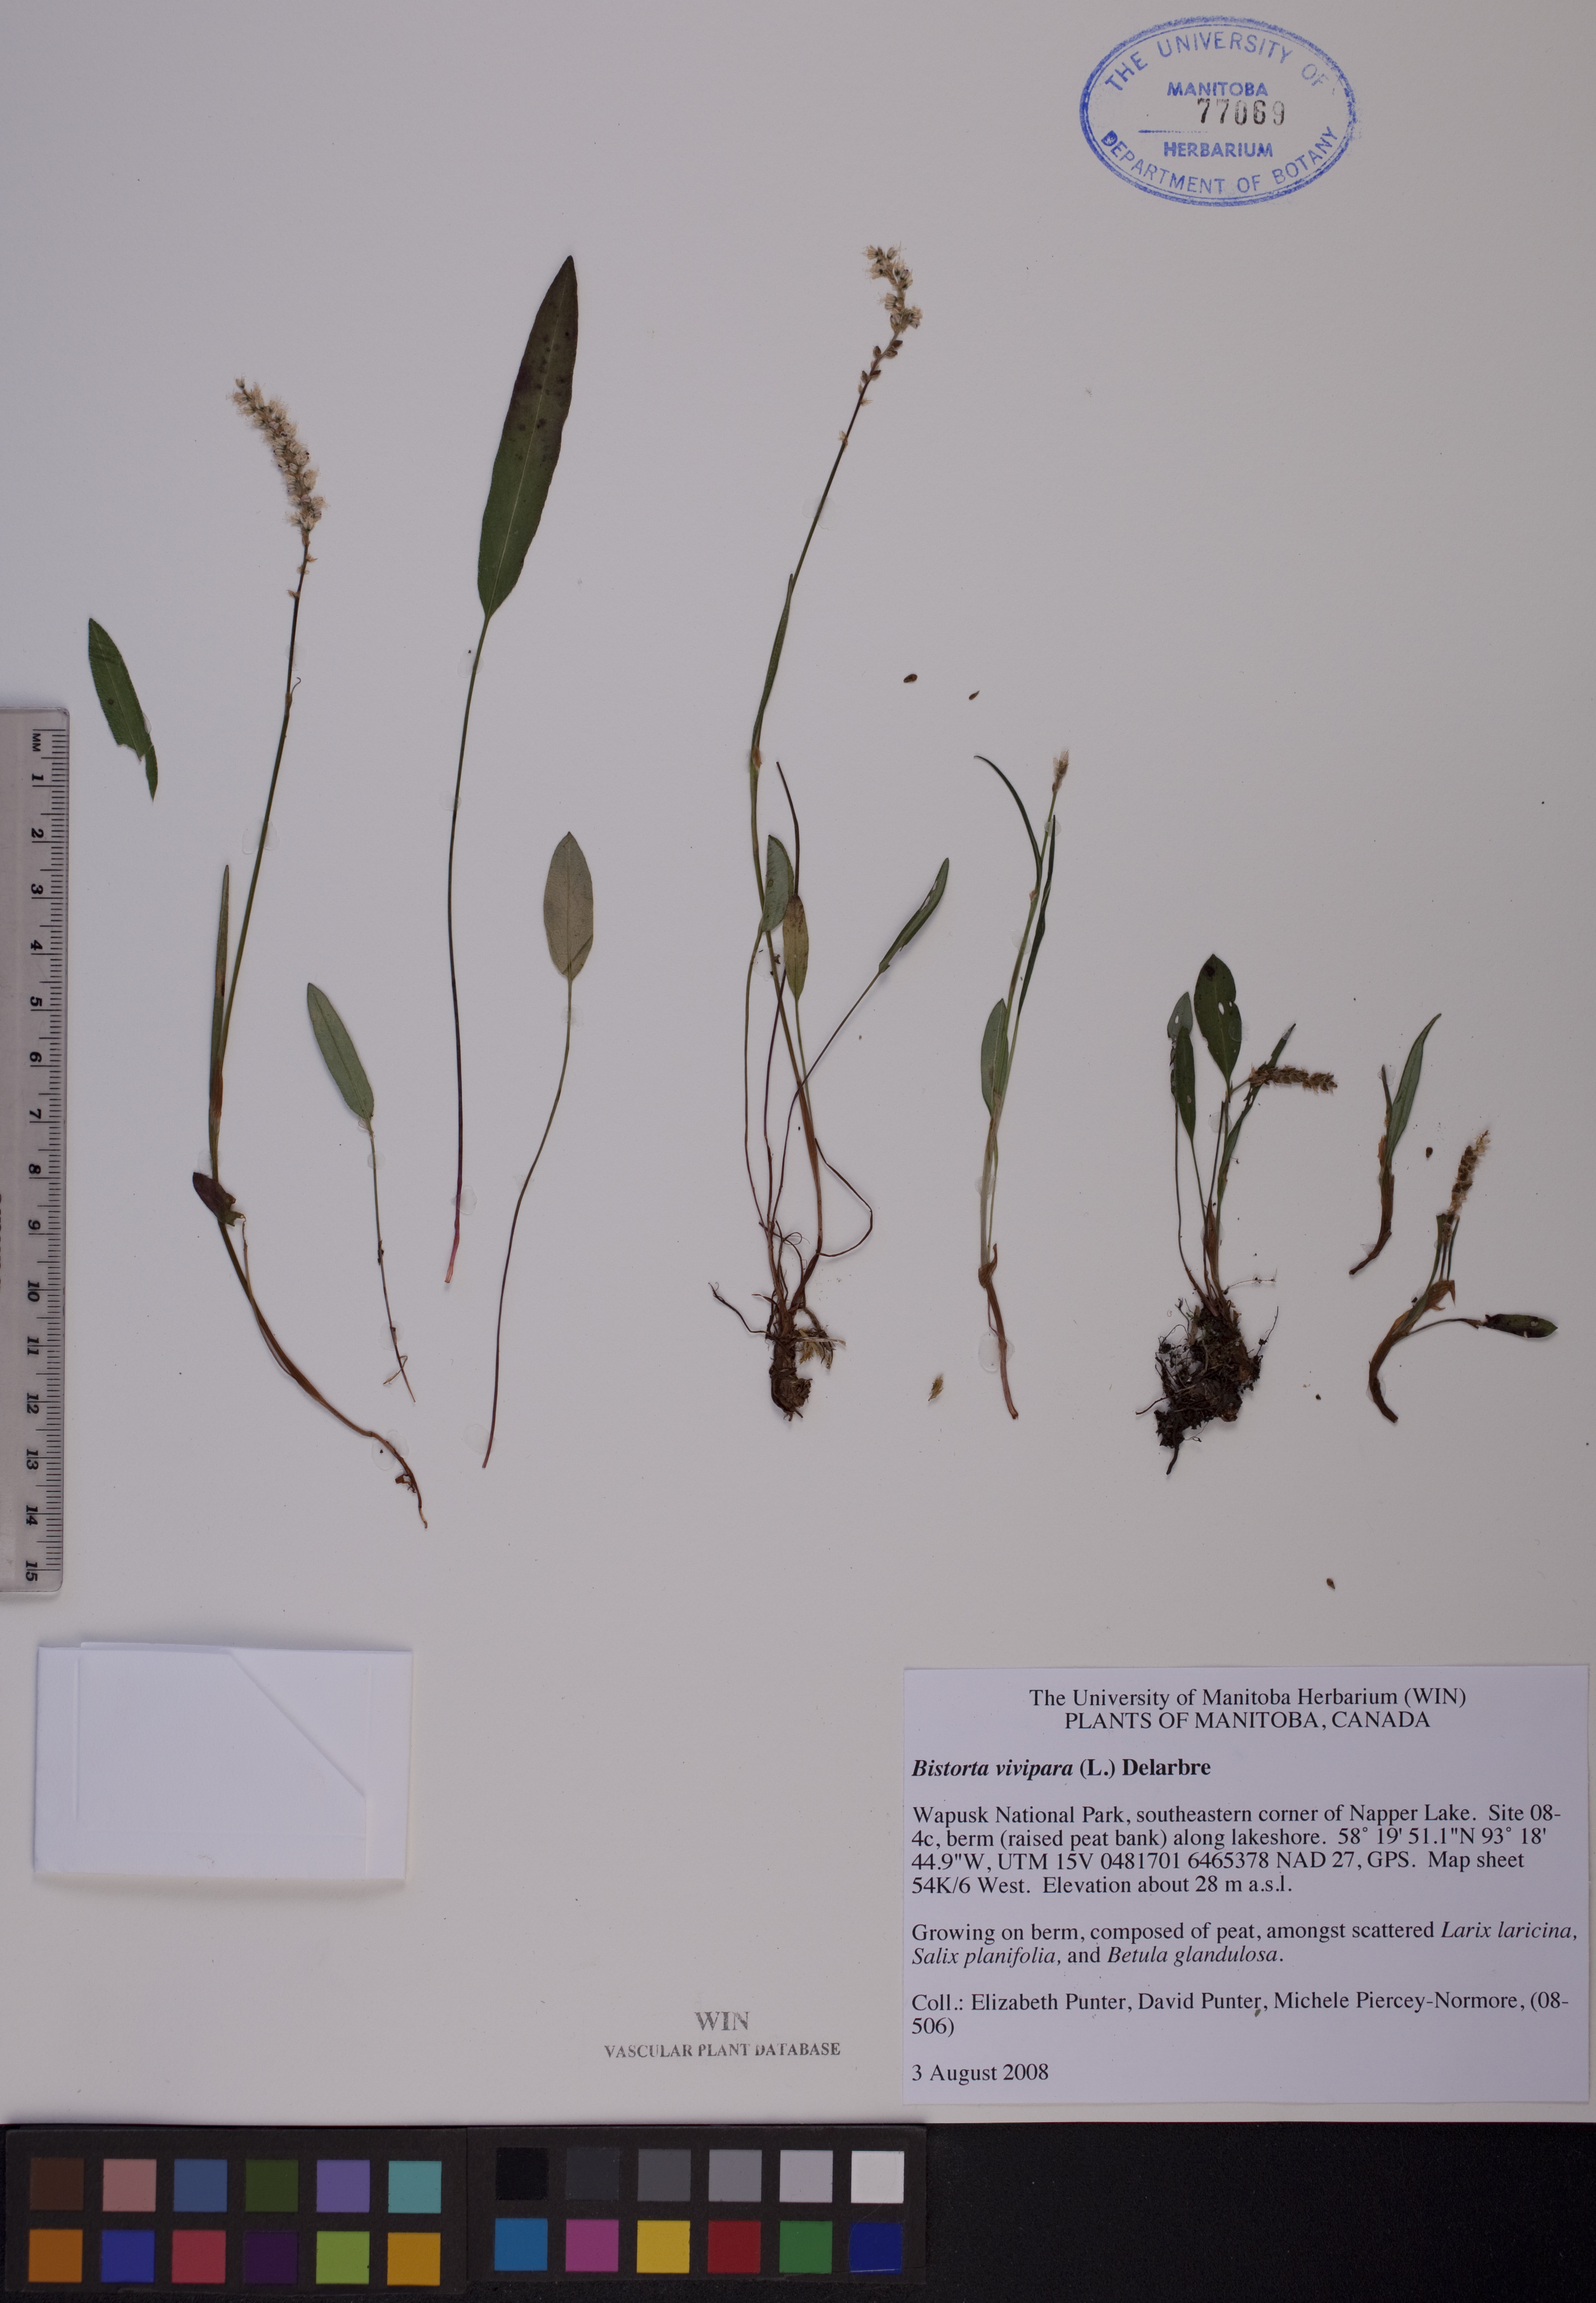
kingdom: Plantae
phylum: Tracheophyta
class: Magnoliopsida
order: Caryophyllales
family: Polygonaceae
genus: Bistorta
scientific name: Bistorta vivipara
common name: Alpine bistort
